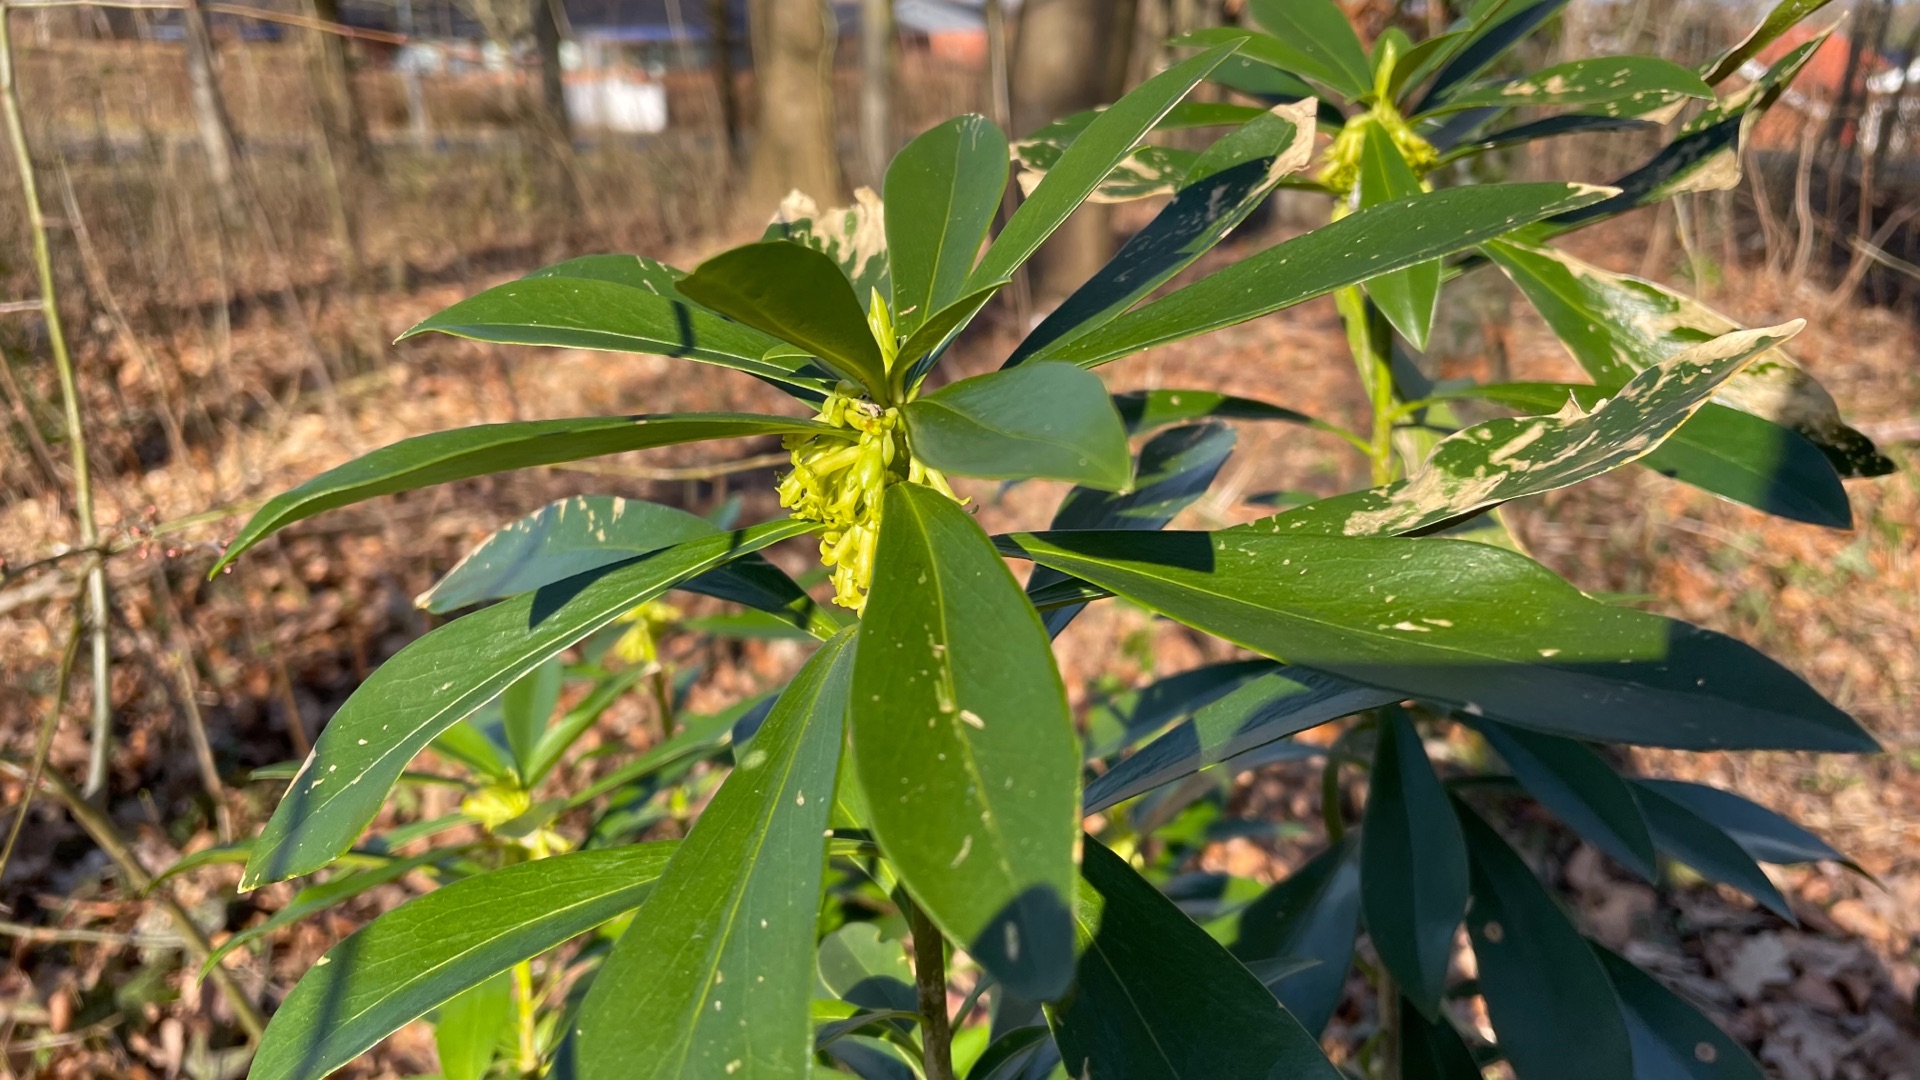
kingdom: Plantae
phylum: Tracheophyta
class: Magnoliopsida
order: Malvales
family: Thymelaeaceae
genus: Daphne
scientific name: Daphne laureola
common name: Laurbær-dafne
